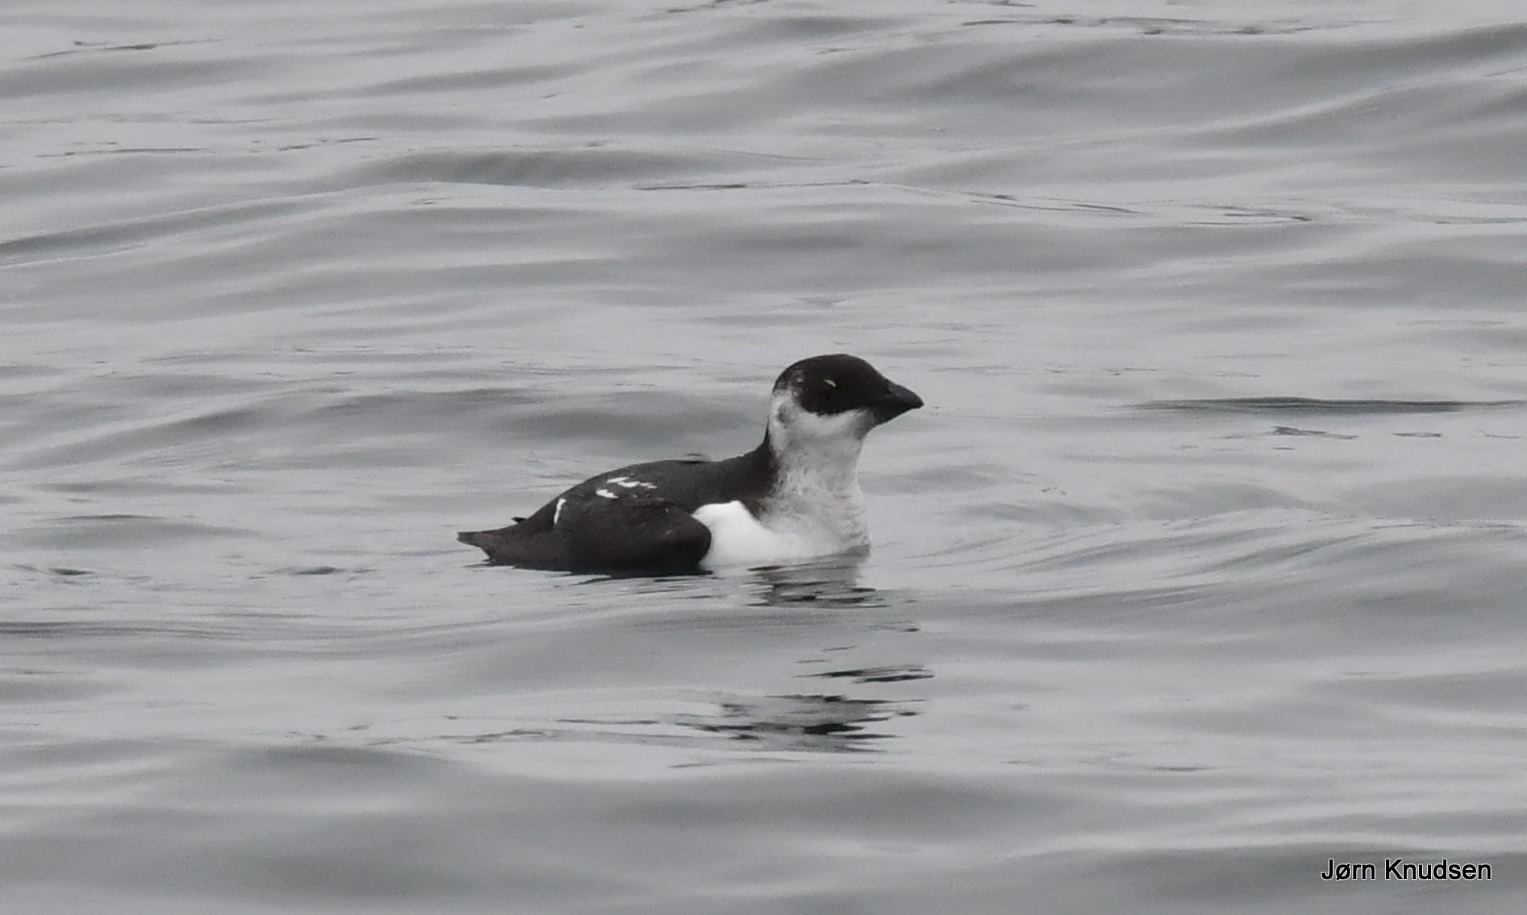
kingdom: Animalia
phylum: Chordata
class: Aves
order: Charadriiformes
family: Alcidae
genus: Alle
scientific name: Alle alle
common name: Søkonge
